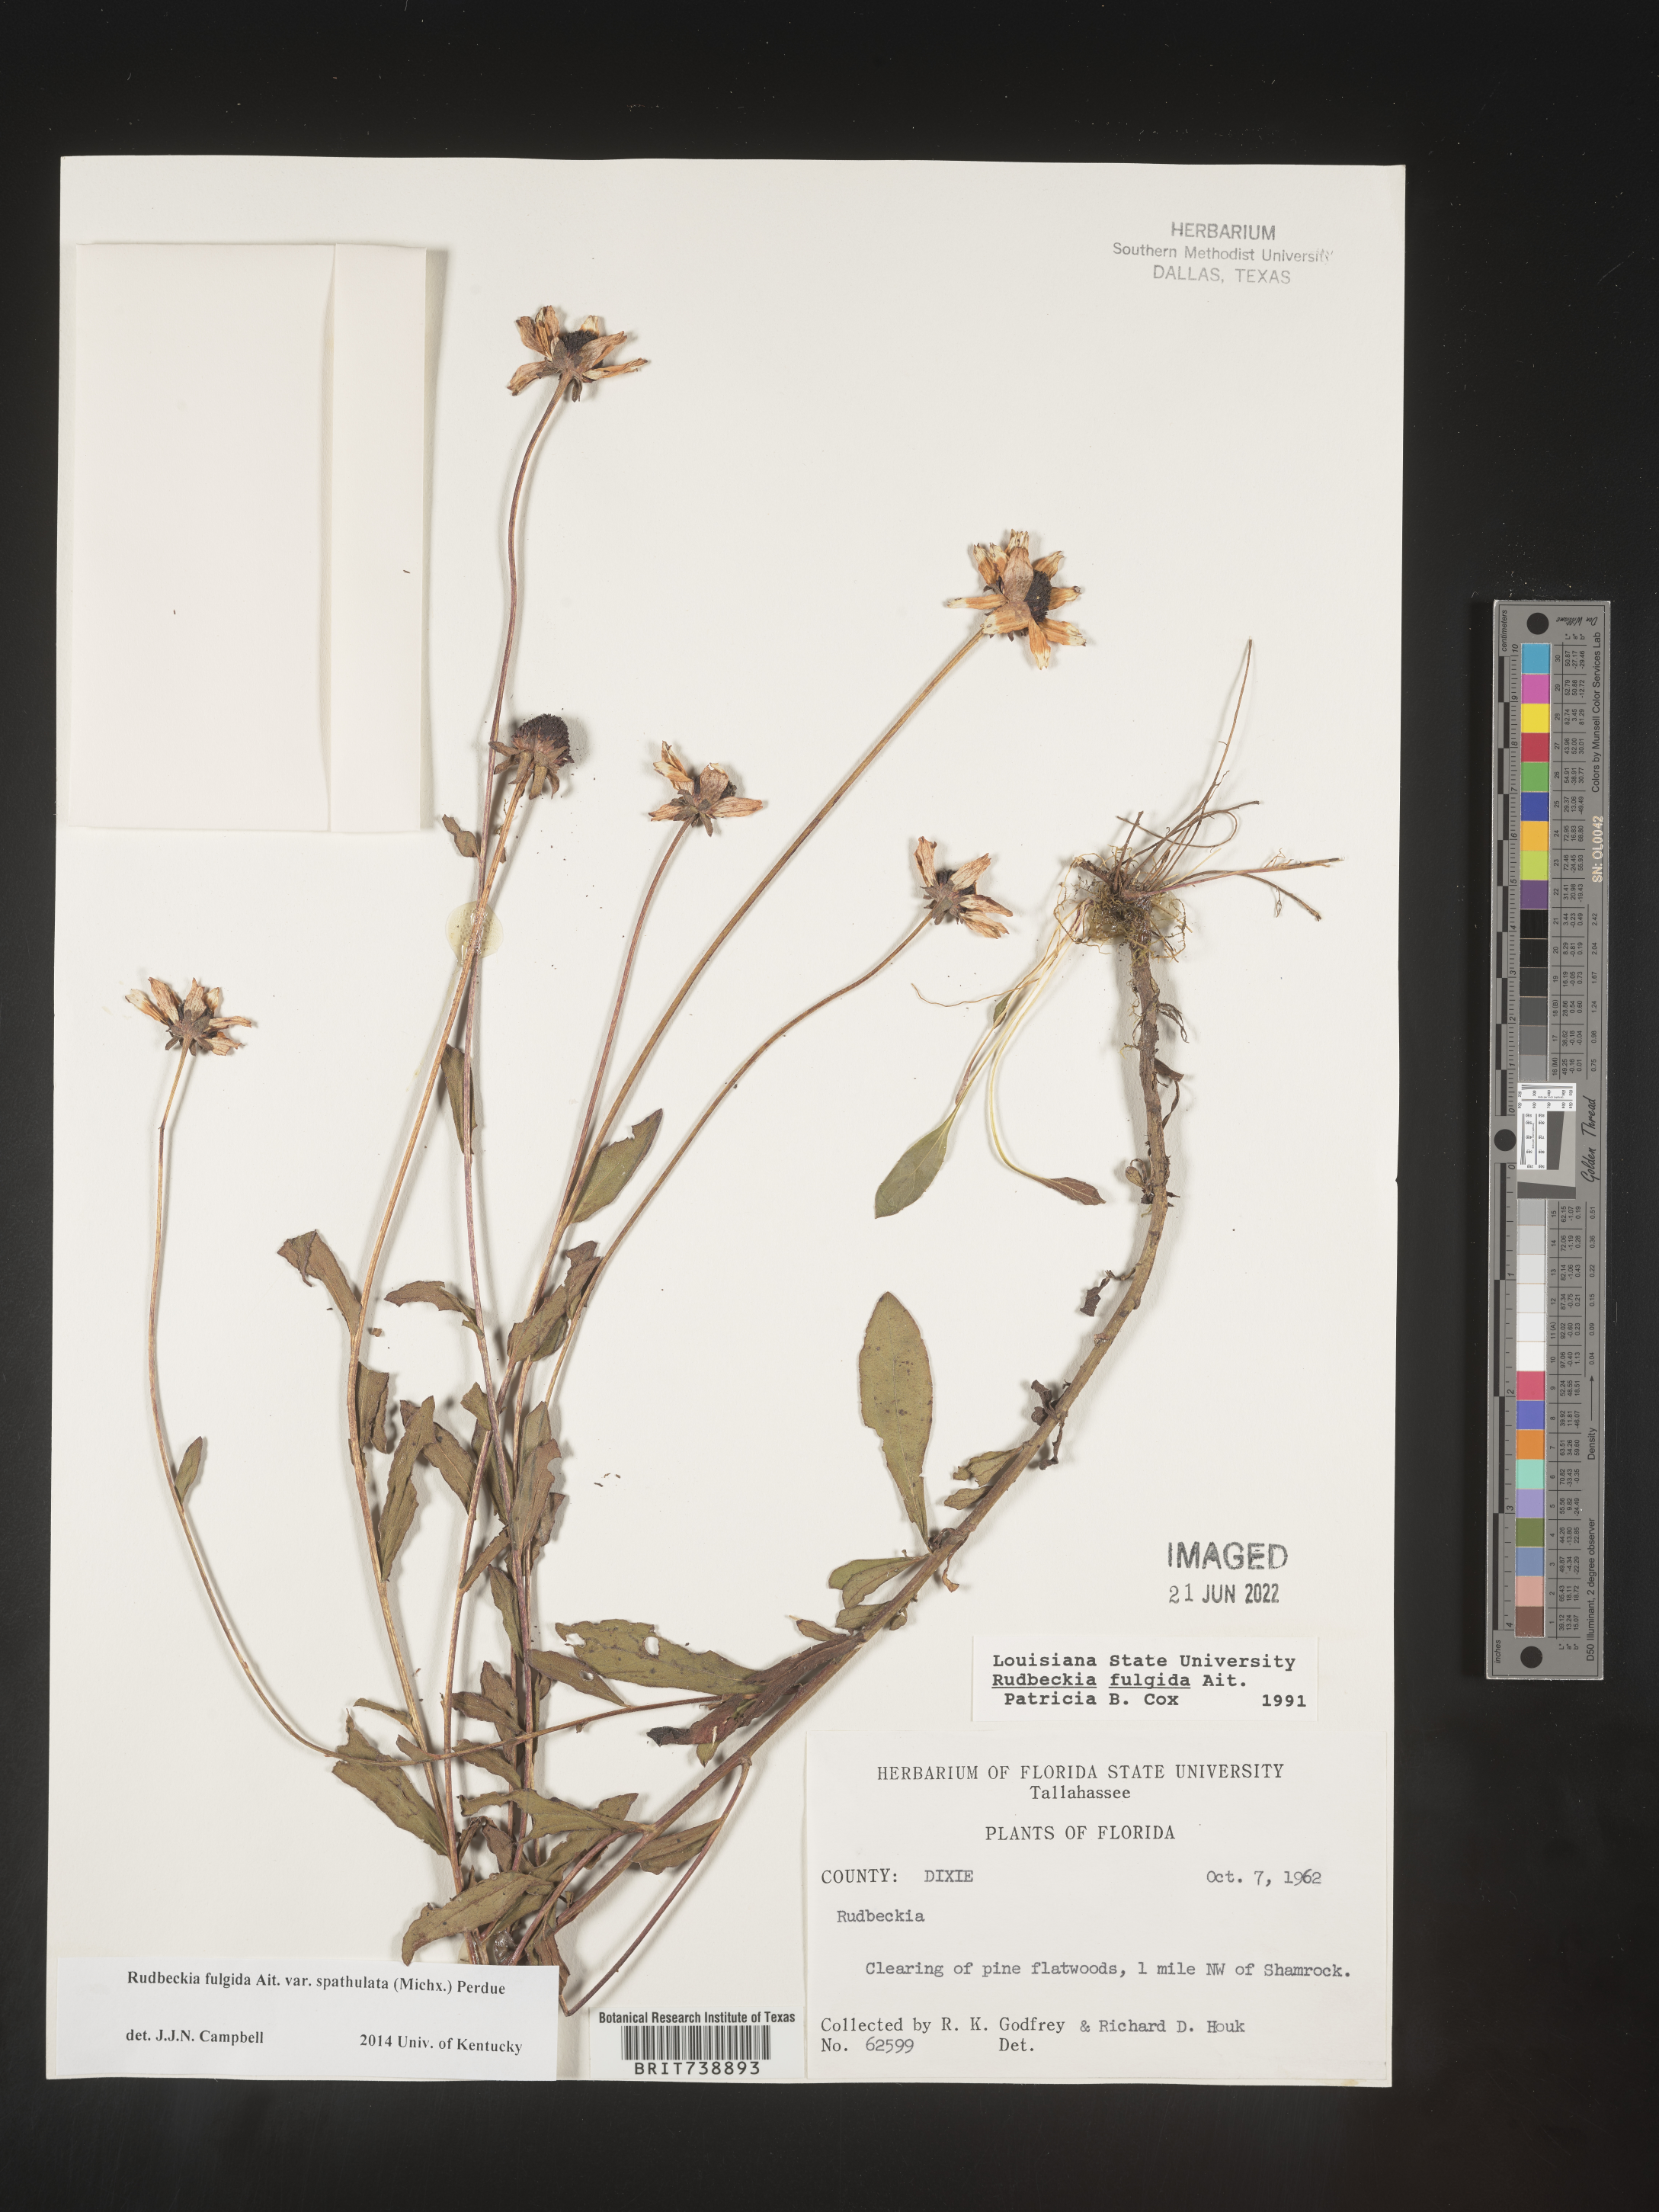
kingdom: Plantae
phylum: Tracheophyta
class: Magnoliopsida
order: Asterales
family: Asteraceae
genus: Rudbeckia
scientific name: Rudbeckia fulgida
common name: Perennial coneflower
